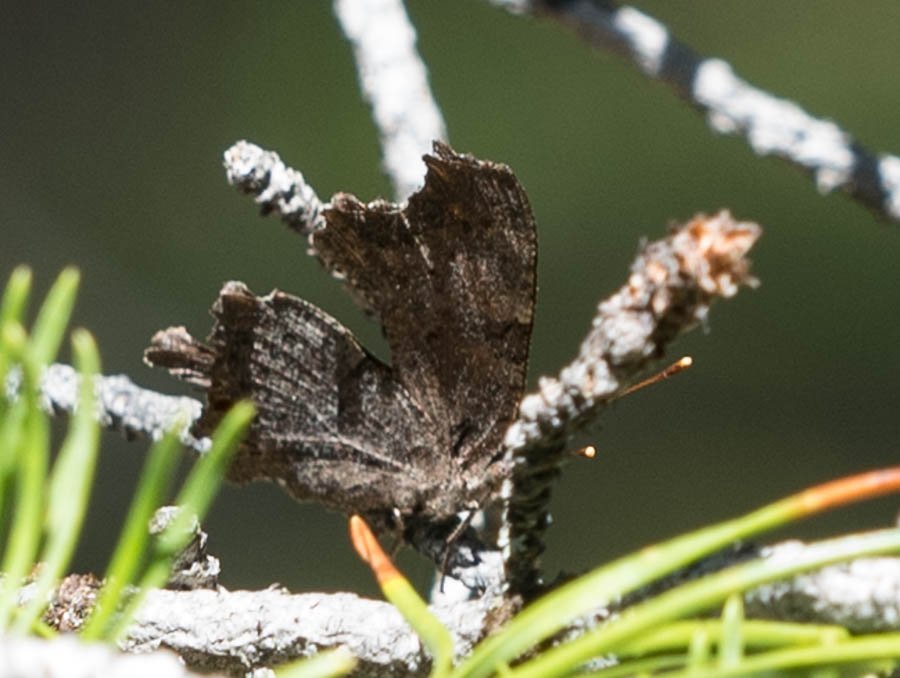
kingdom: Animalia
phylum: Arthropoda
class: Insecta
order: Lepidoptera
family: Nymphalidae
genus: Polygonia
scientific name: Polygonia faunus
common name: Green Comma
